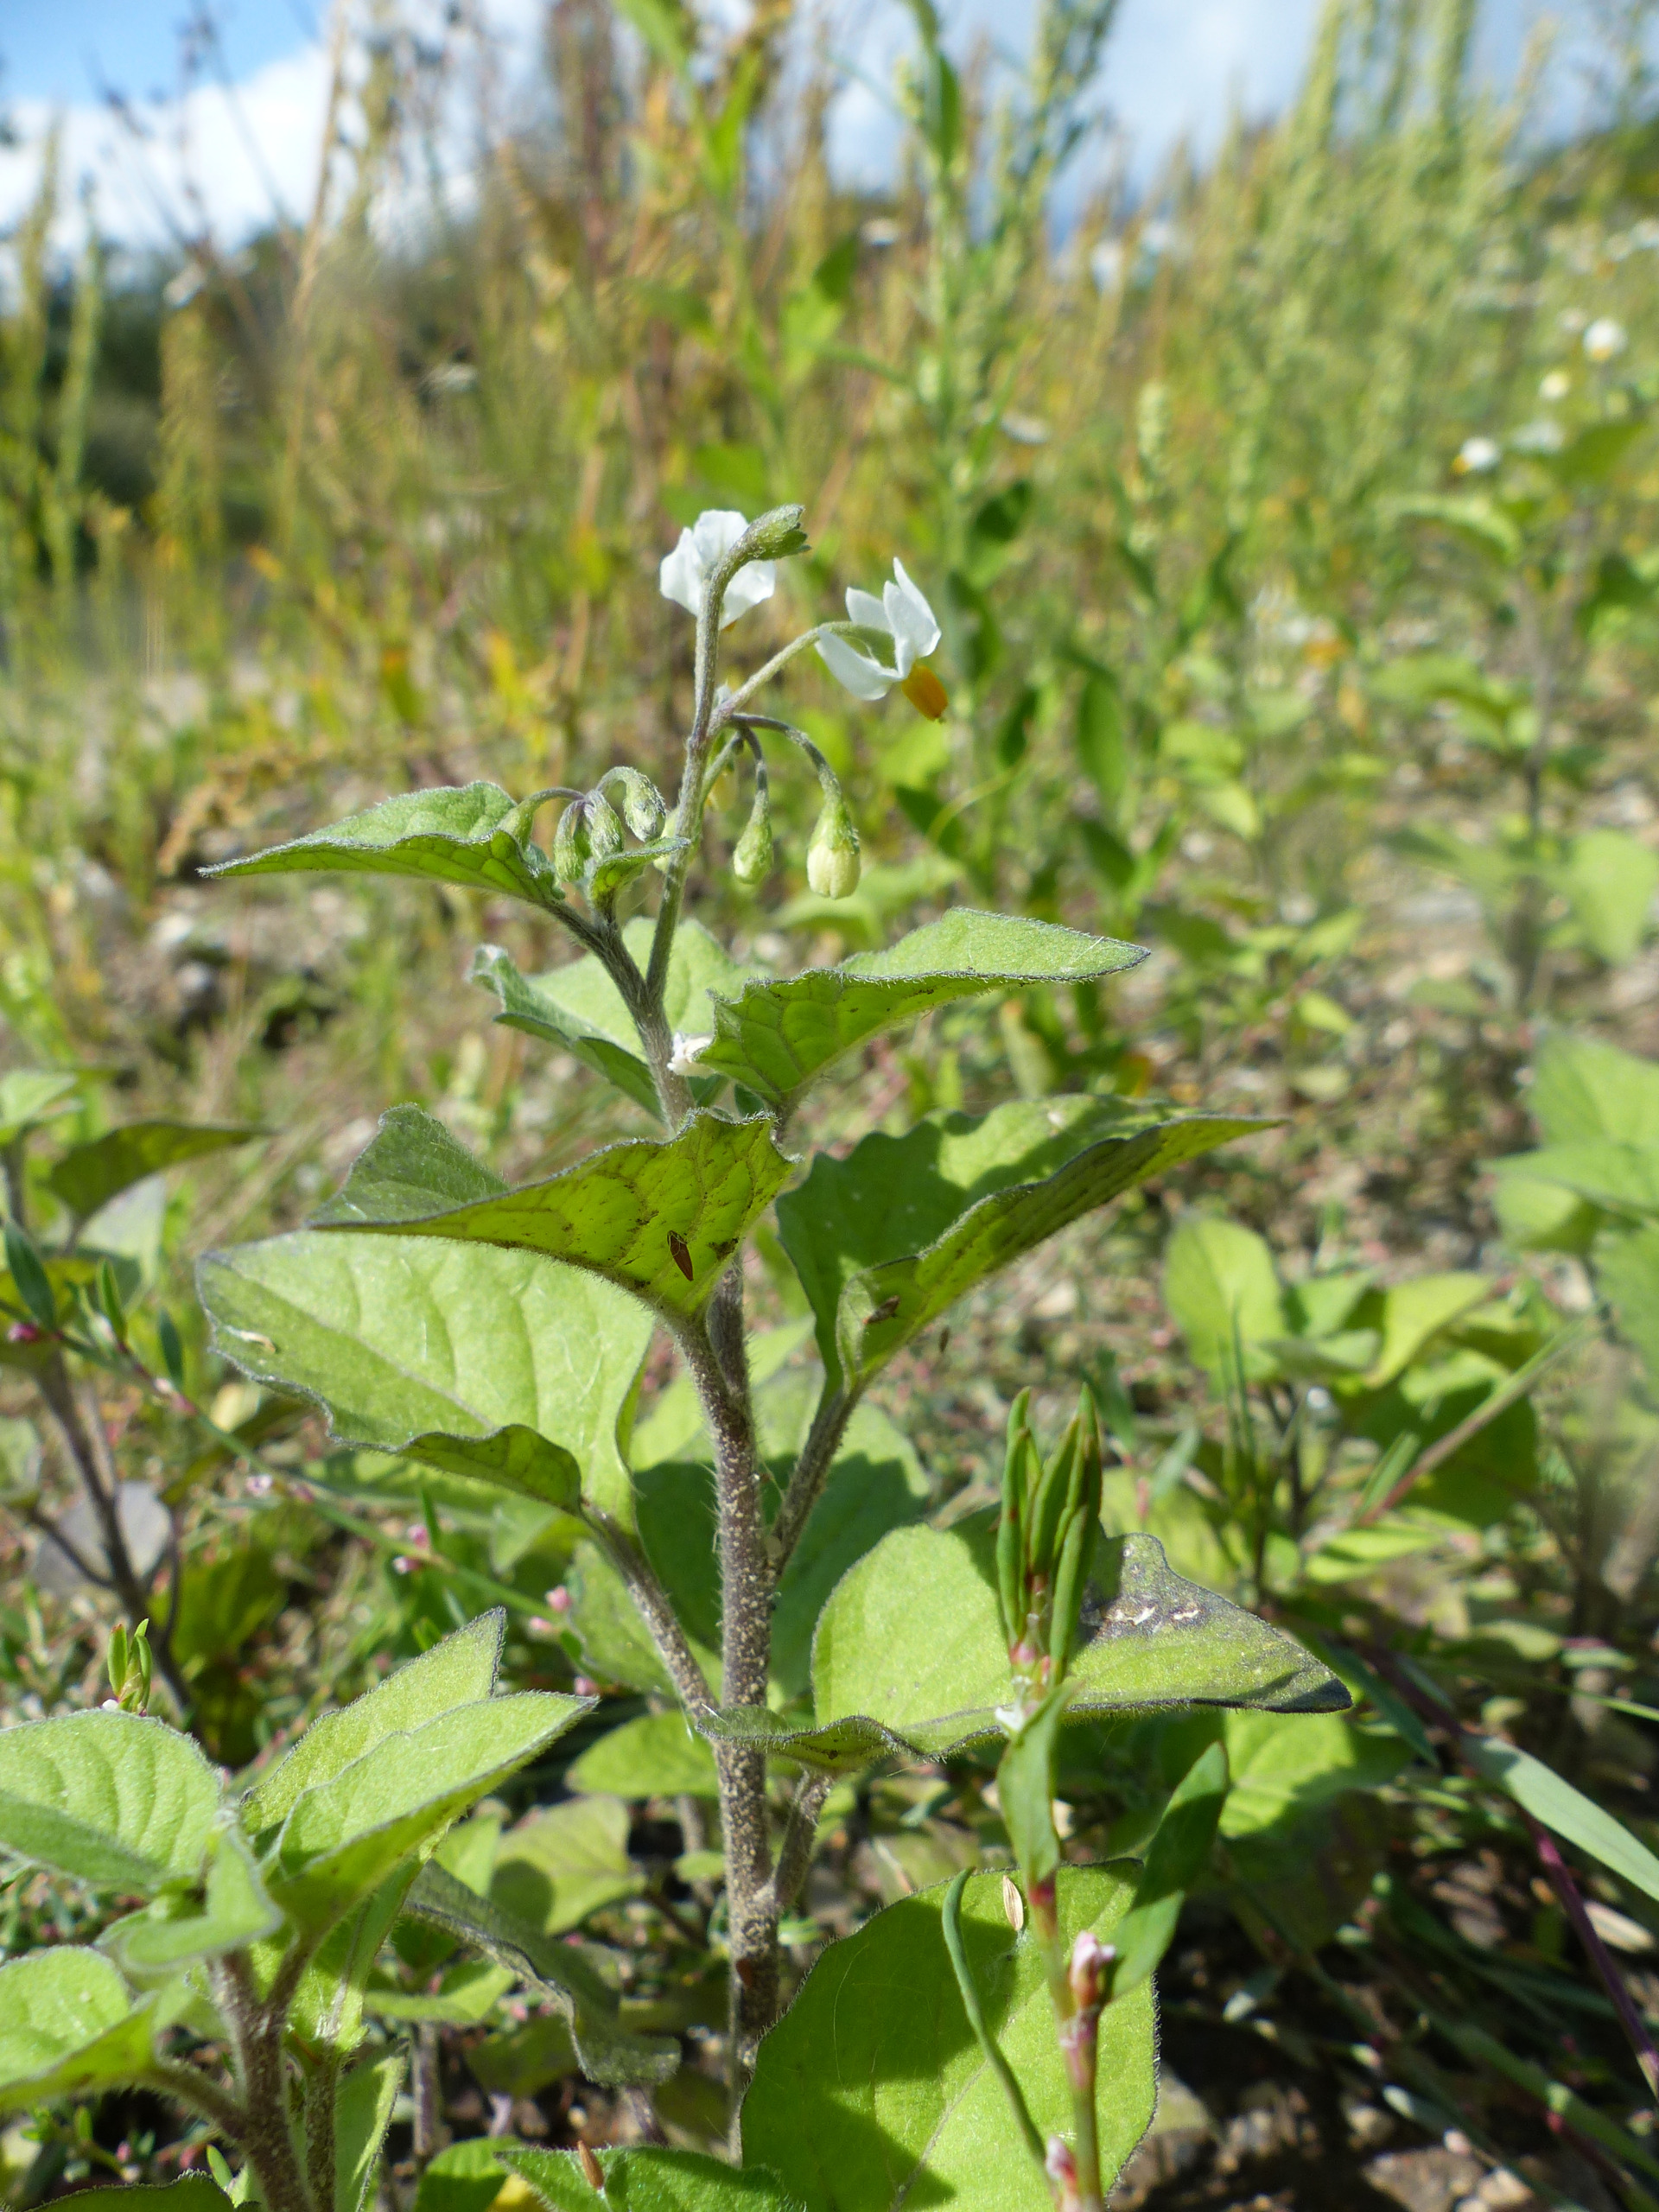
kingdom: Plantae
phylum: Tracheophyta
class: Magnoliopsida
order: Solanales
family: Solanaceae
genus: Solanum
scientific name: Solanum decipiens
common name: Kirtel-natskygge
